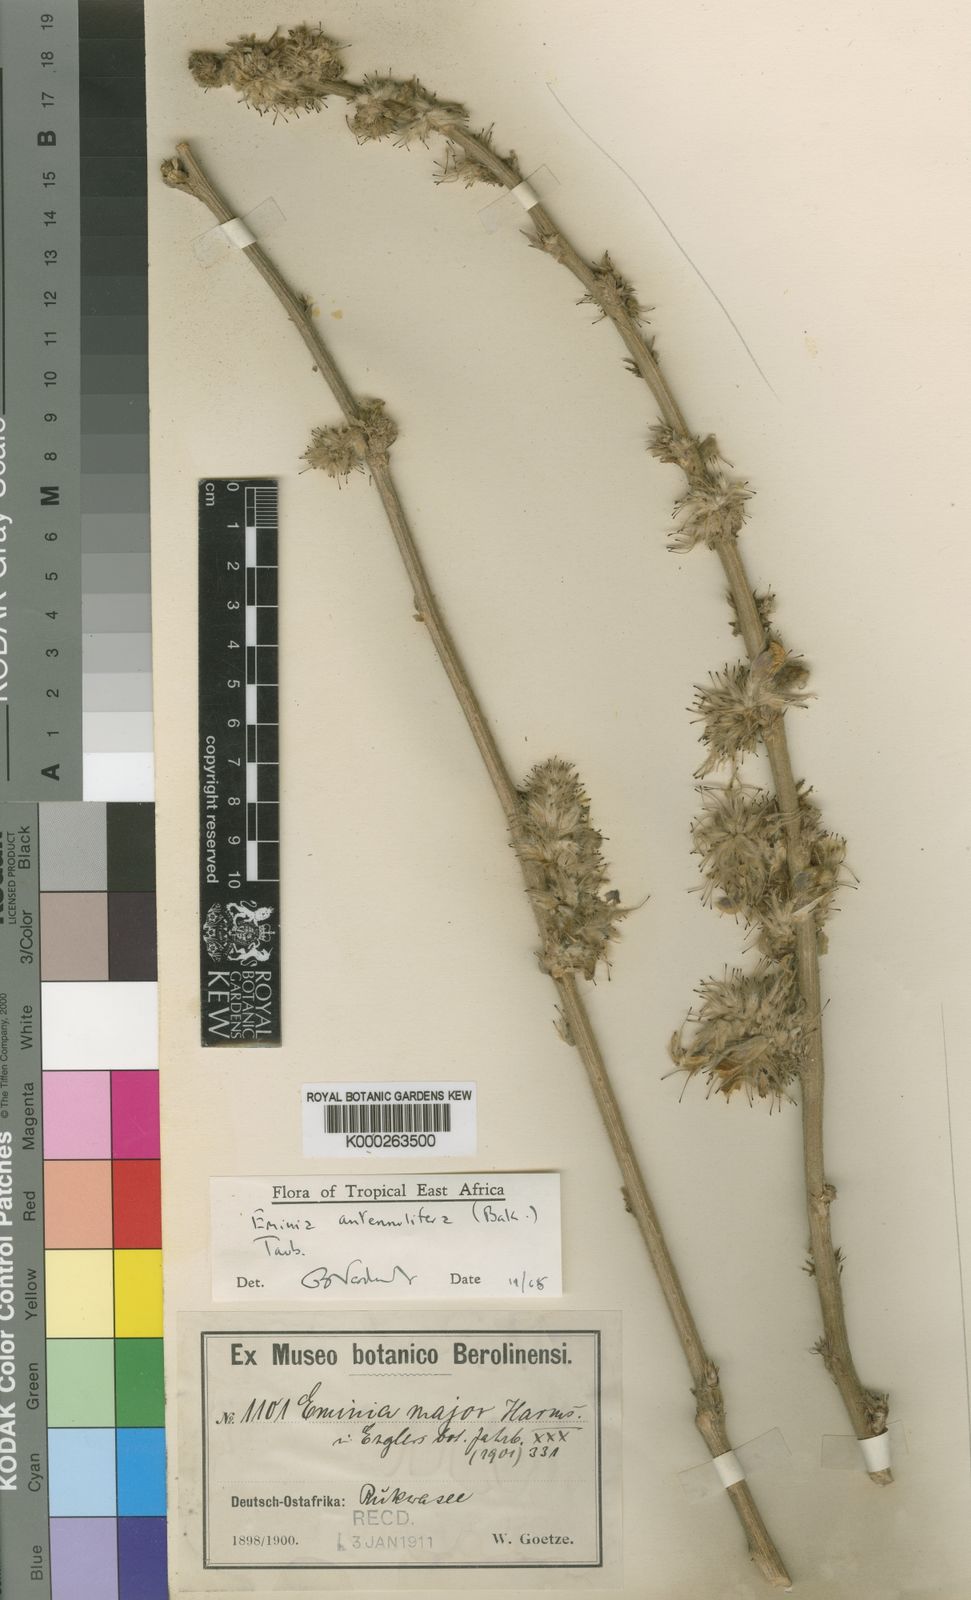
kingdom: Plantae
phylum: Tracheophyta
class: Magnoliopsida
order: Fabales
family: Fabaceae
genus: Eminia
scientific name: Eminia antennulifera
